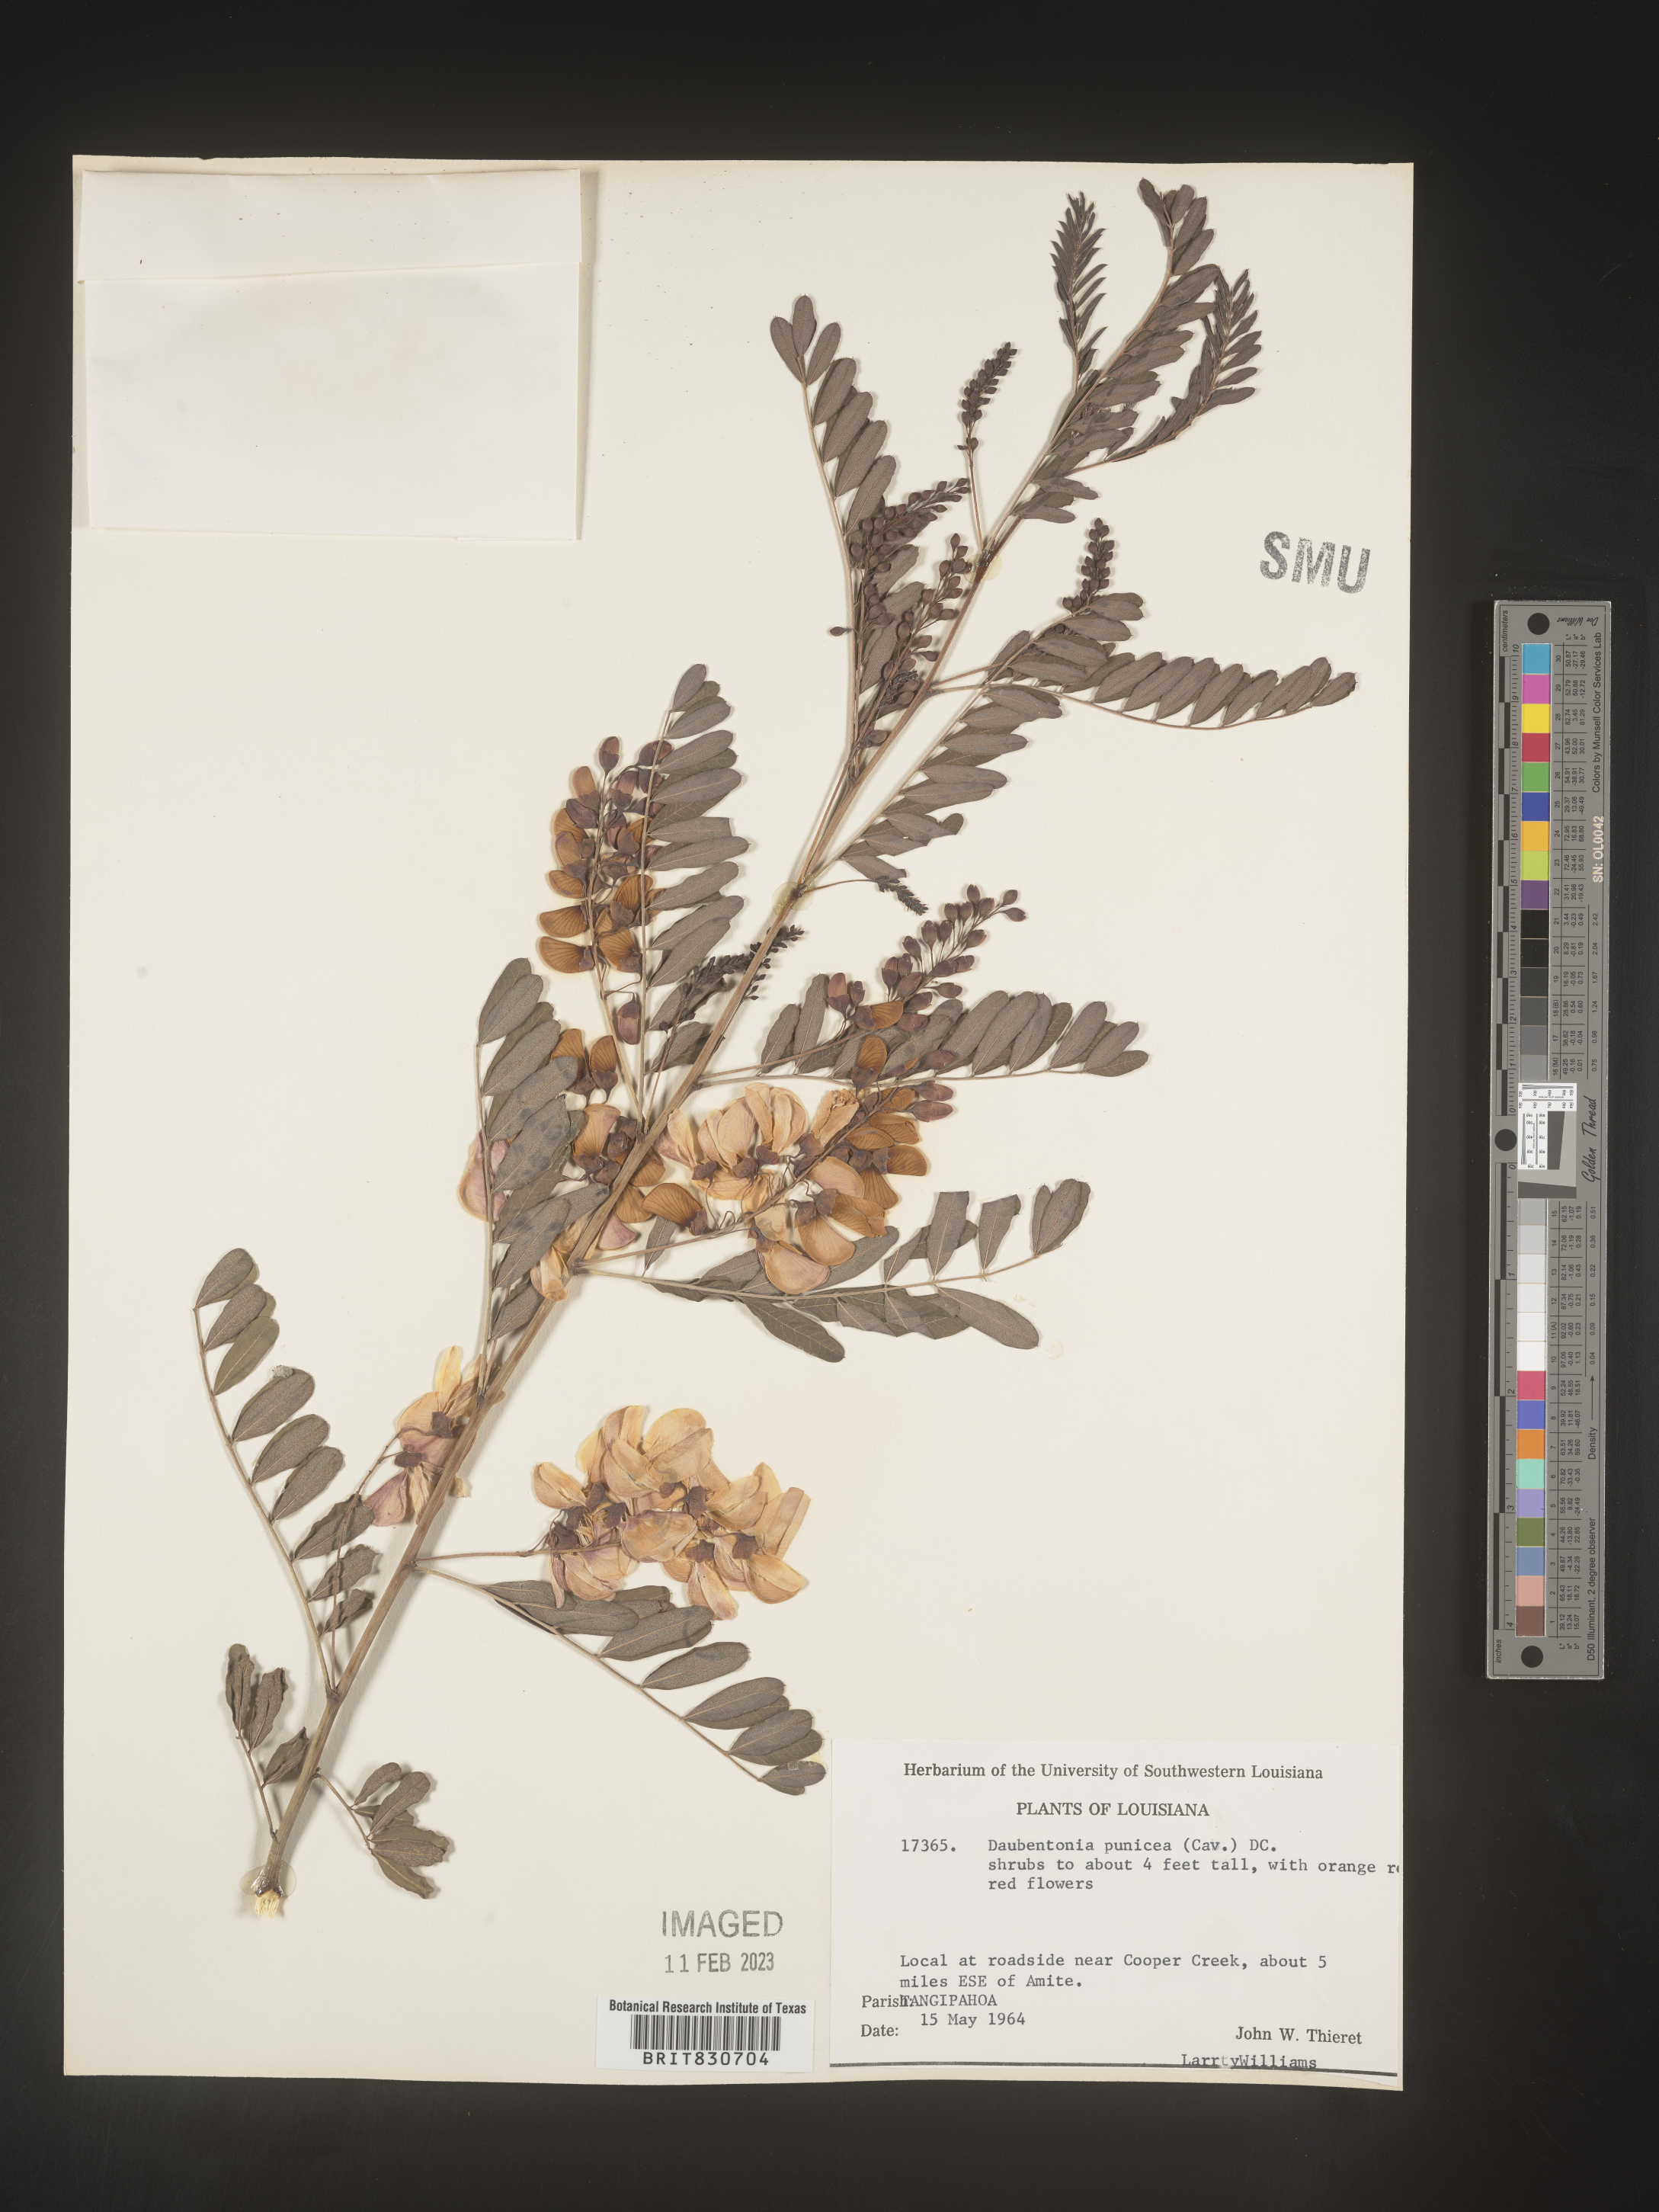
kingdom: Plantae
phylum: Tracheophyta
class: Magnoliopsida
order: Fabales
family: Fabaceae
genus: Sesbania
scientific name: Sesbania punicea
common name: Rattlebox
